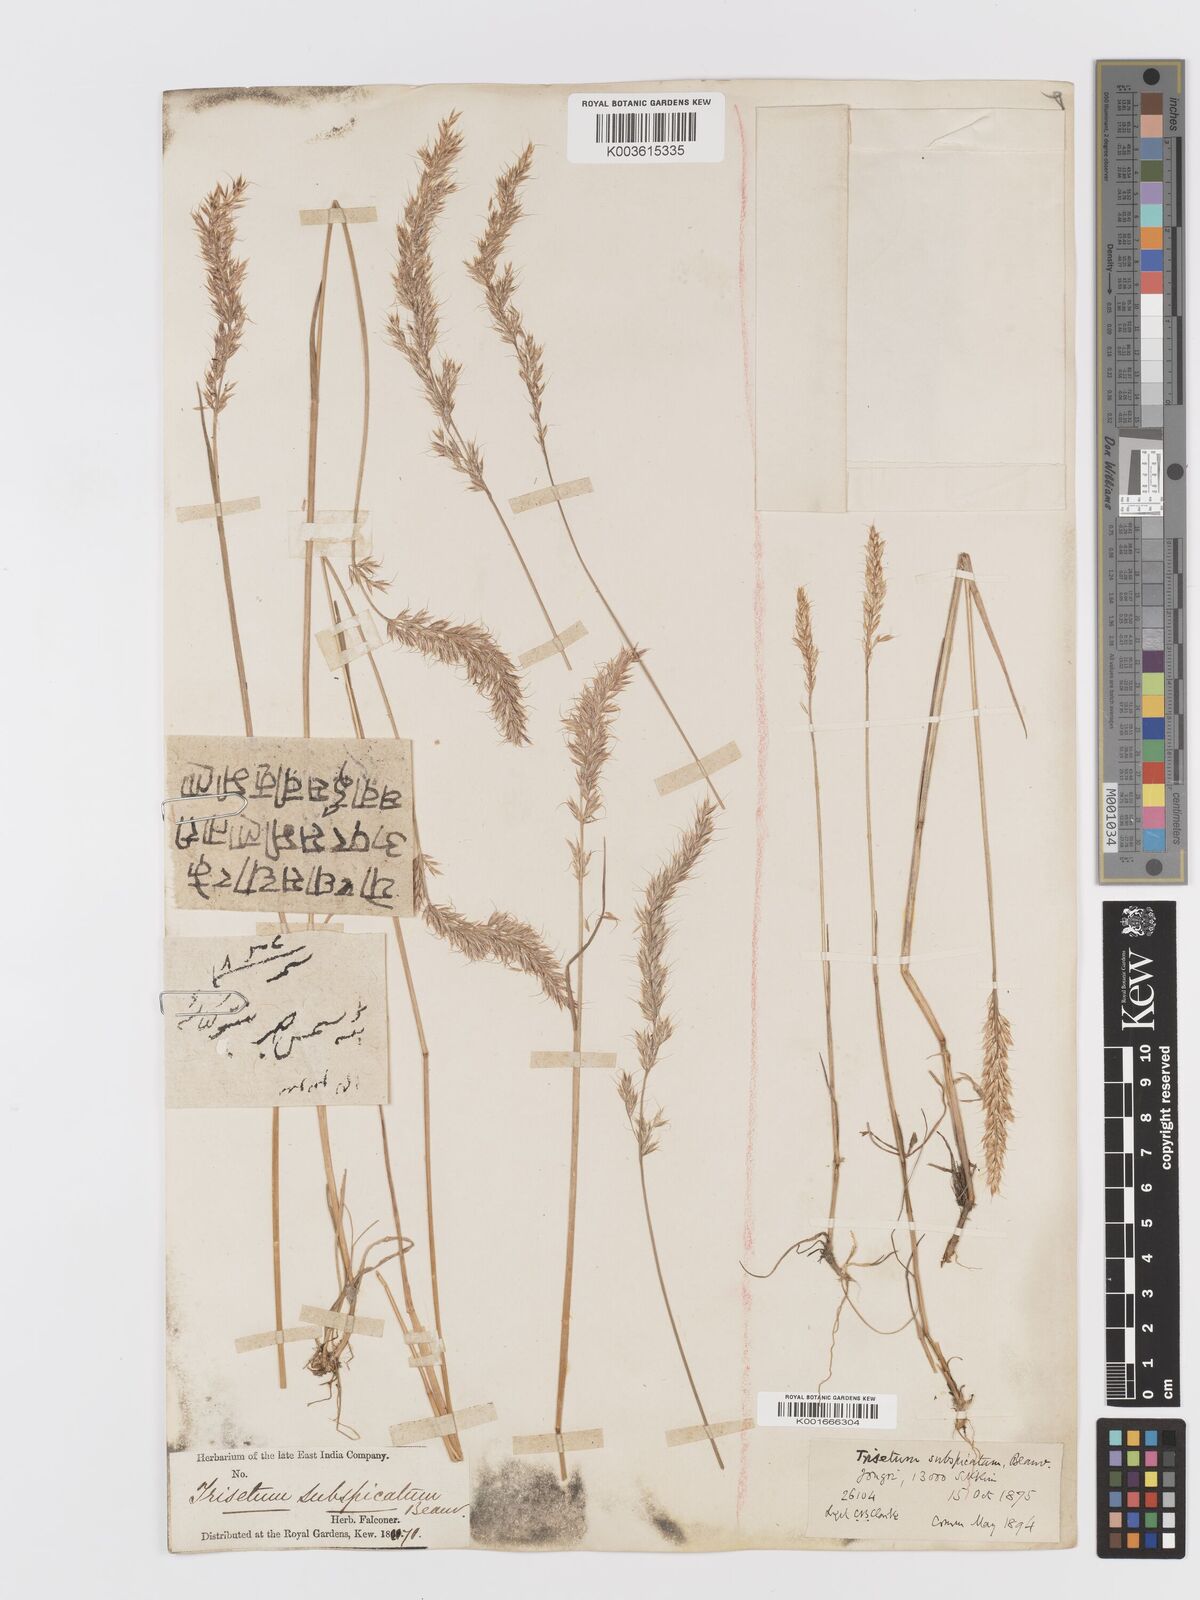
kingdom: Plantae
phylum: Tracheophyta
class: Liliopsida
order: Poales
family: Poaceae
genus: Trisetum
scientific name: Trisetum clarkei
